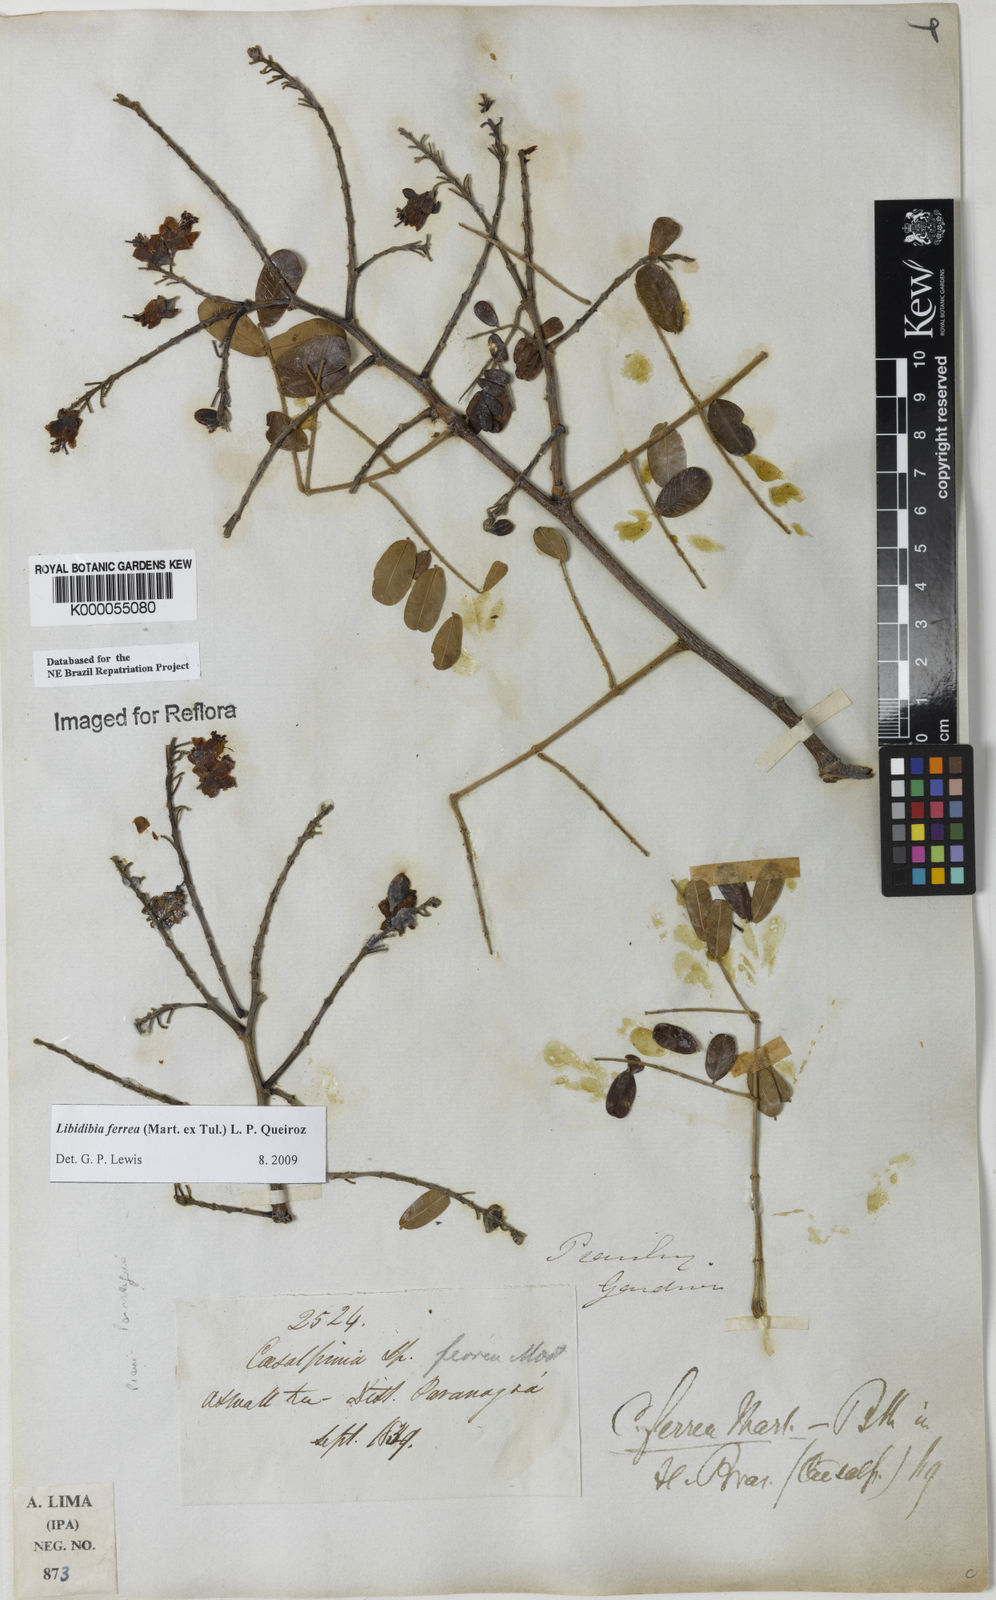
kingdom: Plantae
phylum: Tracheophyta
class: Magnoliopsida
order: Fabales
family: Fabaceae
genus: Libidibia
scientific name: Libidibia ferrea
